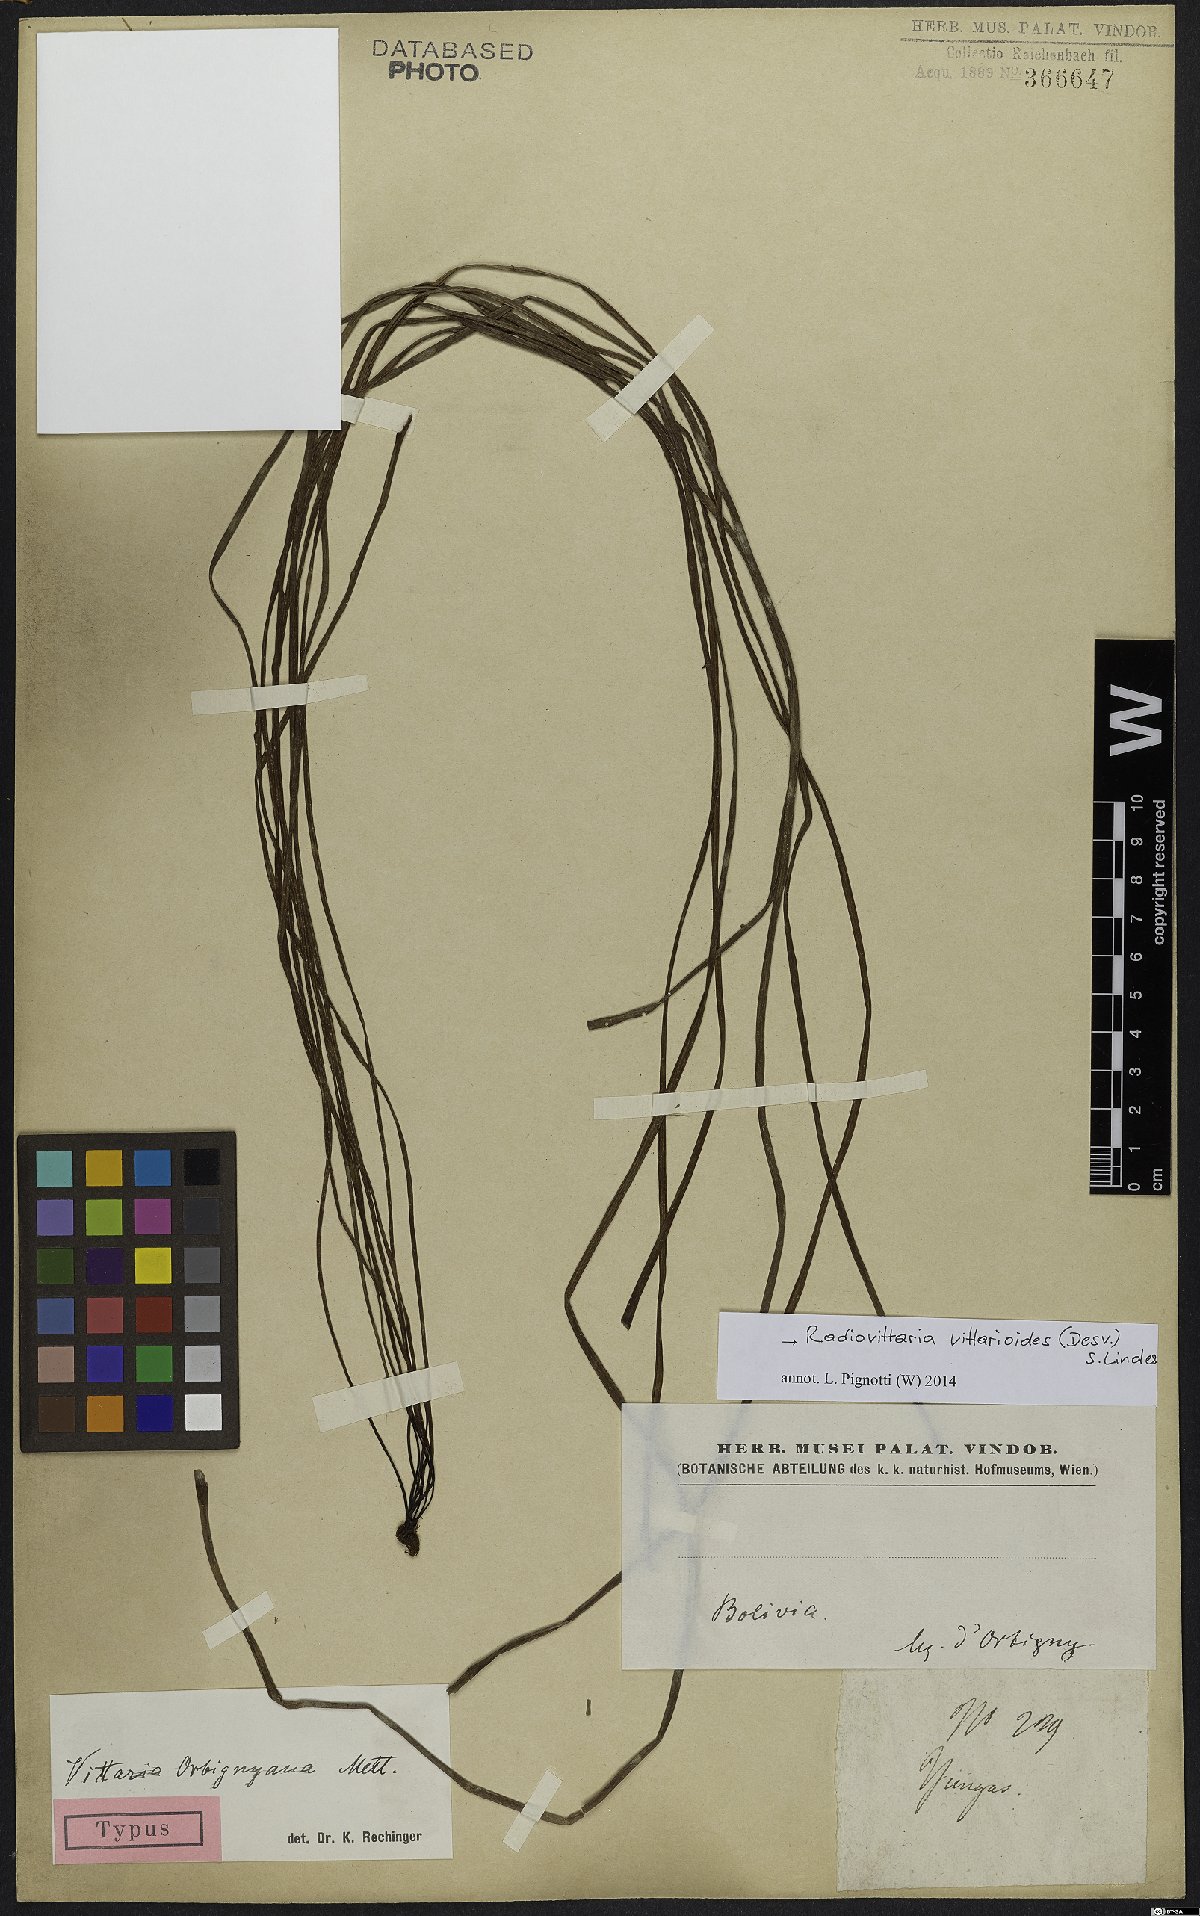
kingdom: Plantae
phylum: Tracheophyta
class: Polypodiopsida
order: Polypodiales
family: Pteridaceae
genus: Radiovittaria
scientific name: Radiovittaria ruiziana
